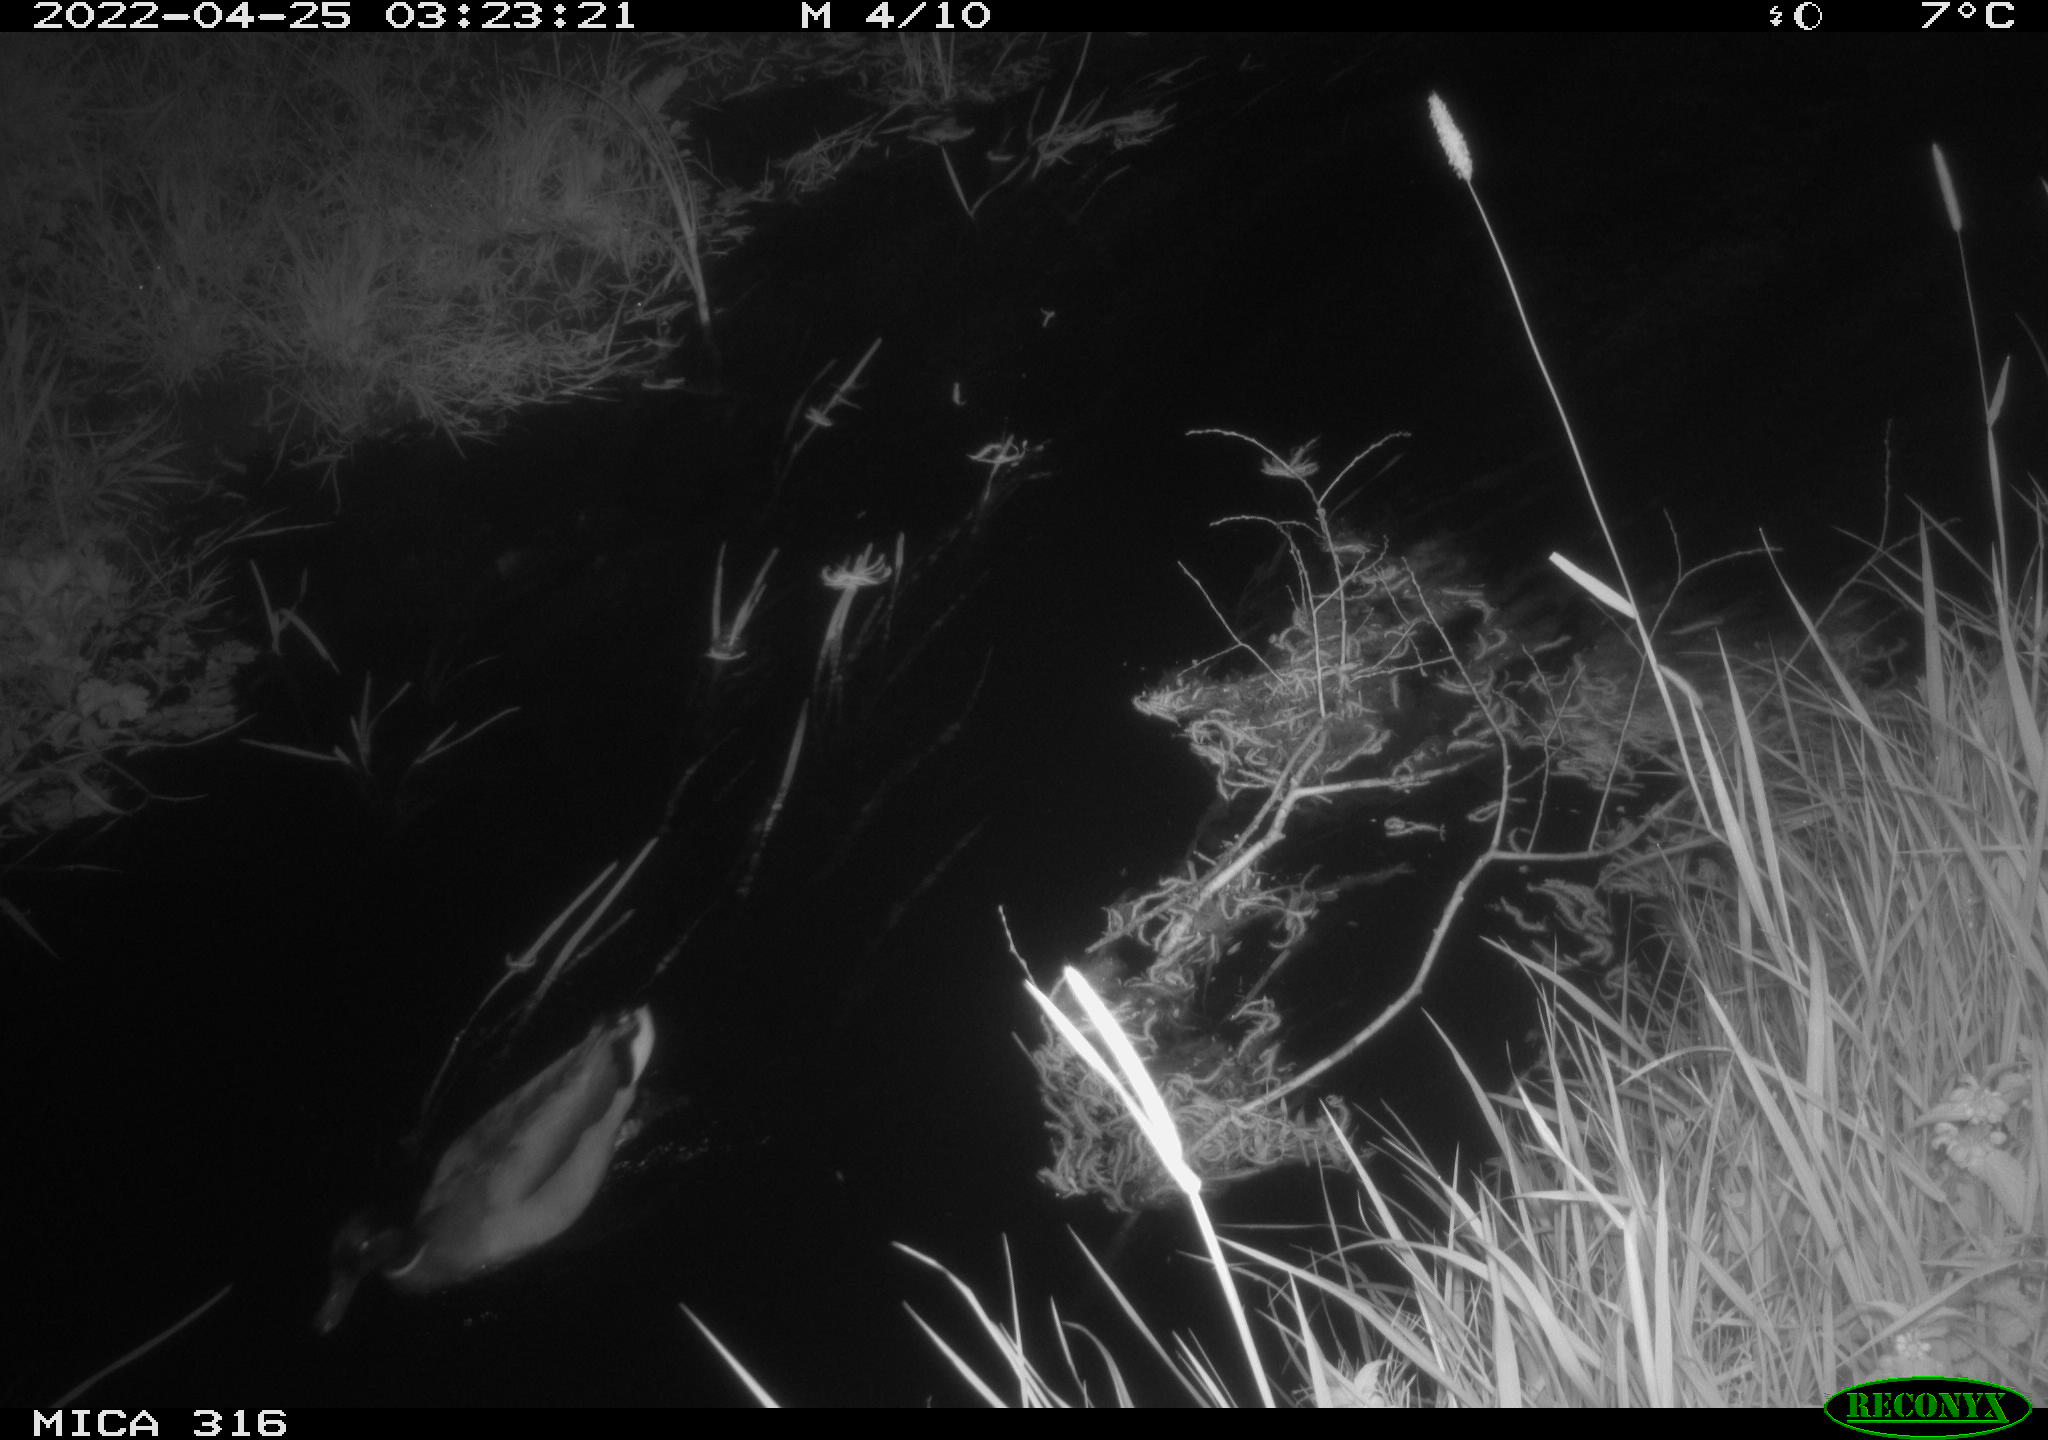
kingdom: Animalia
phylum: Chordata
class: Aves
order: Anseriformes
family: Anatidae
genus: Anas
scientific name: Anas platyrhynchos
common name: Mallard
